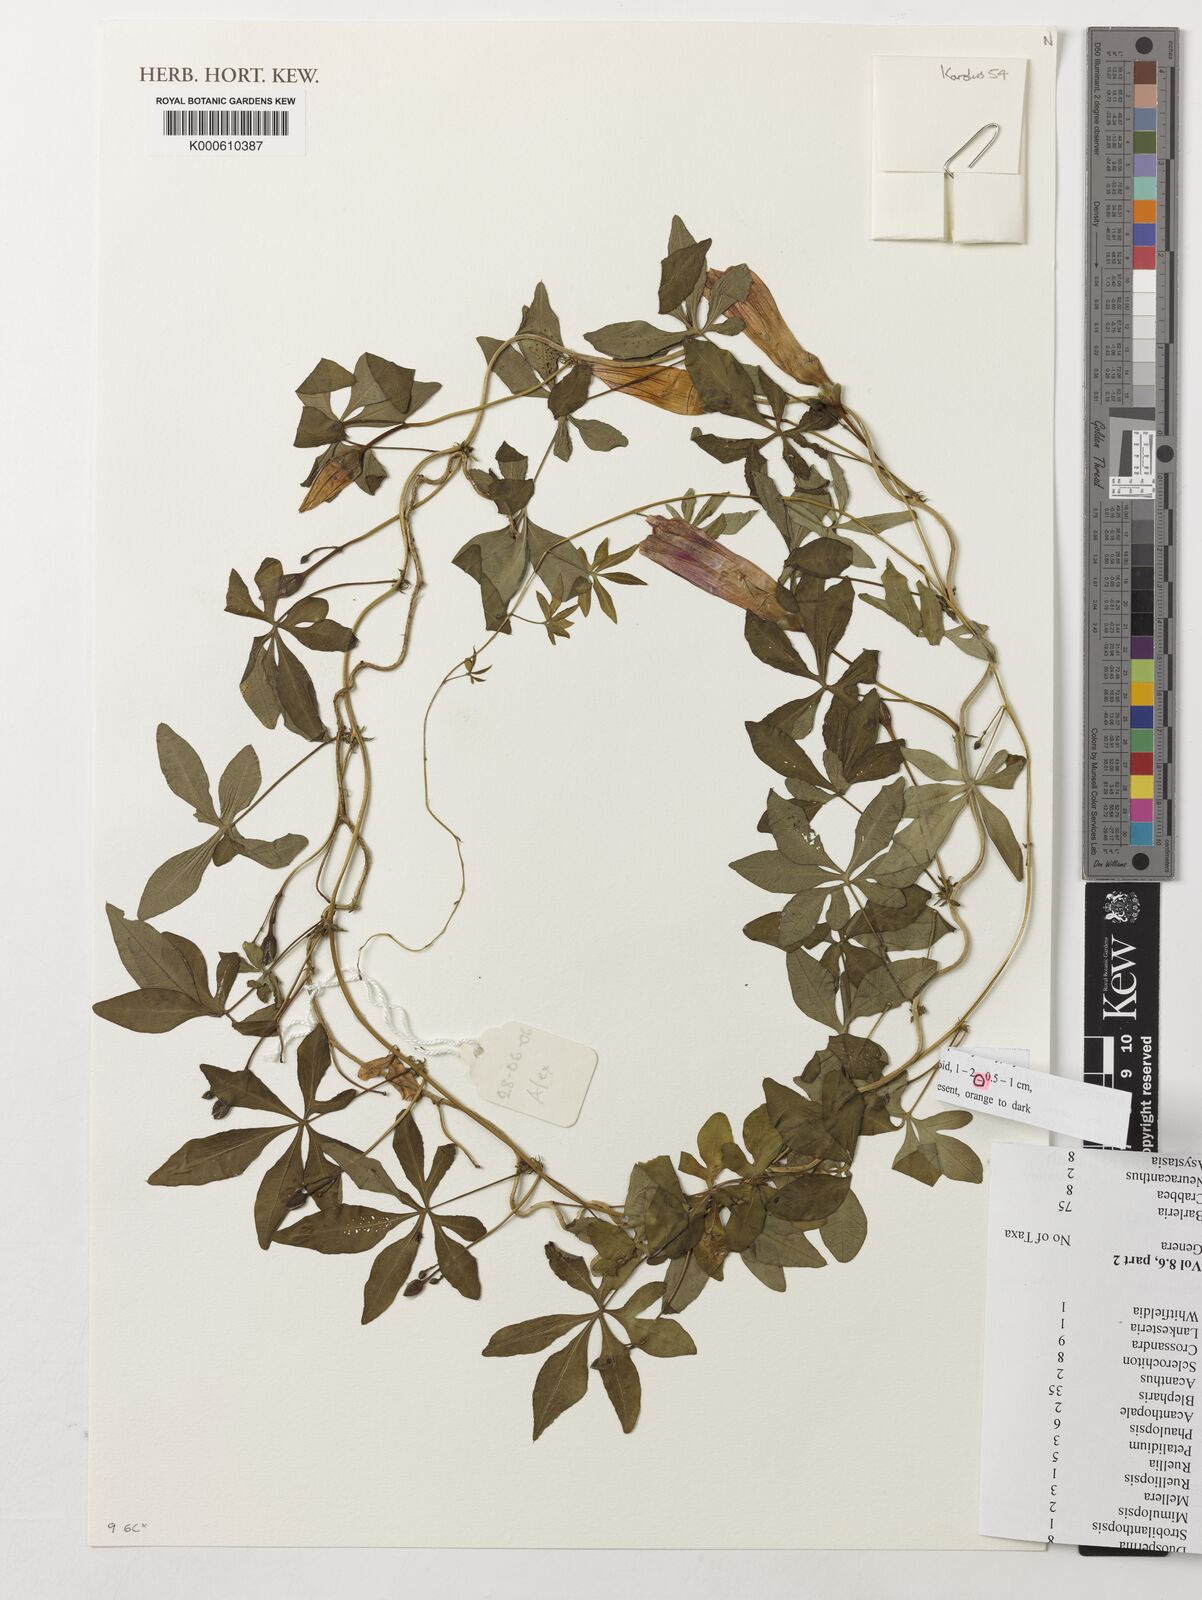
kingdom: Plantae
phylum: Tracheophyta
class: Magnoliopsida
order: Solanales
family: Convolvulaceae
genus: Ipomoea
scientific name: Ipomoea cairica
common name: Mile a minute vine
